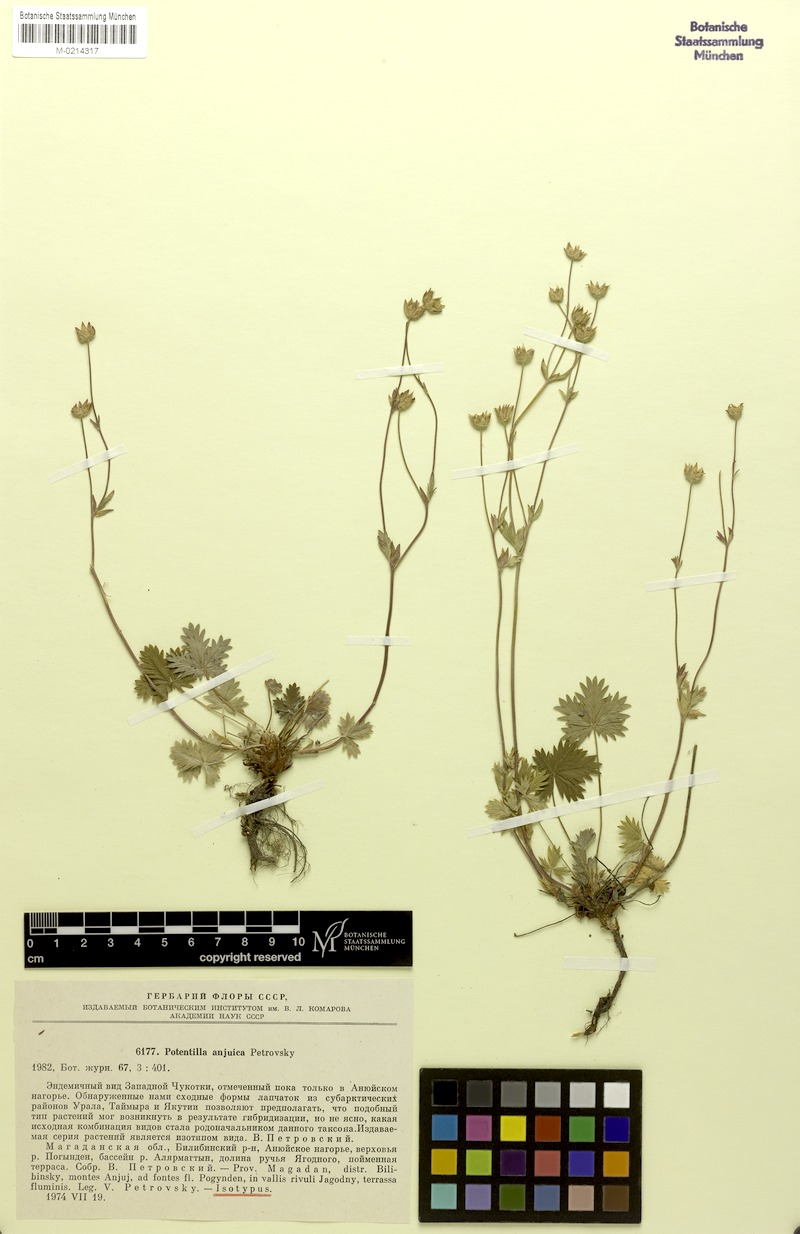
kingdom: Plantae
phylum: Tracheophyta
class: Magnoliopsida
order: Rosales
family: Rosaceae
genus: Potentilla
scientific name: Potentilla anjuica
